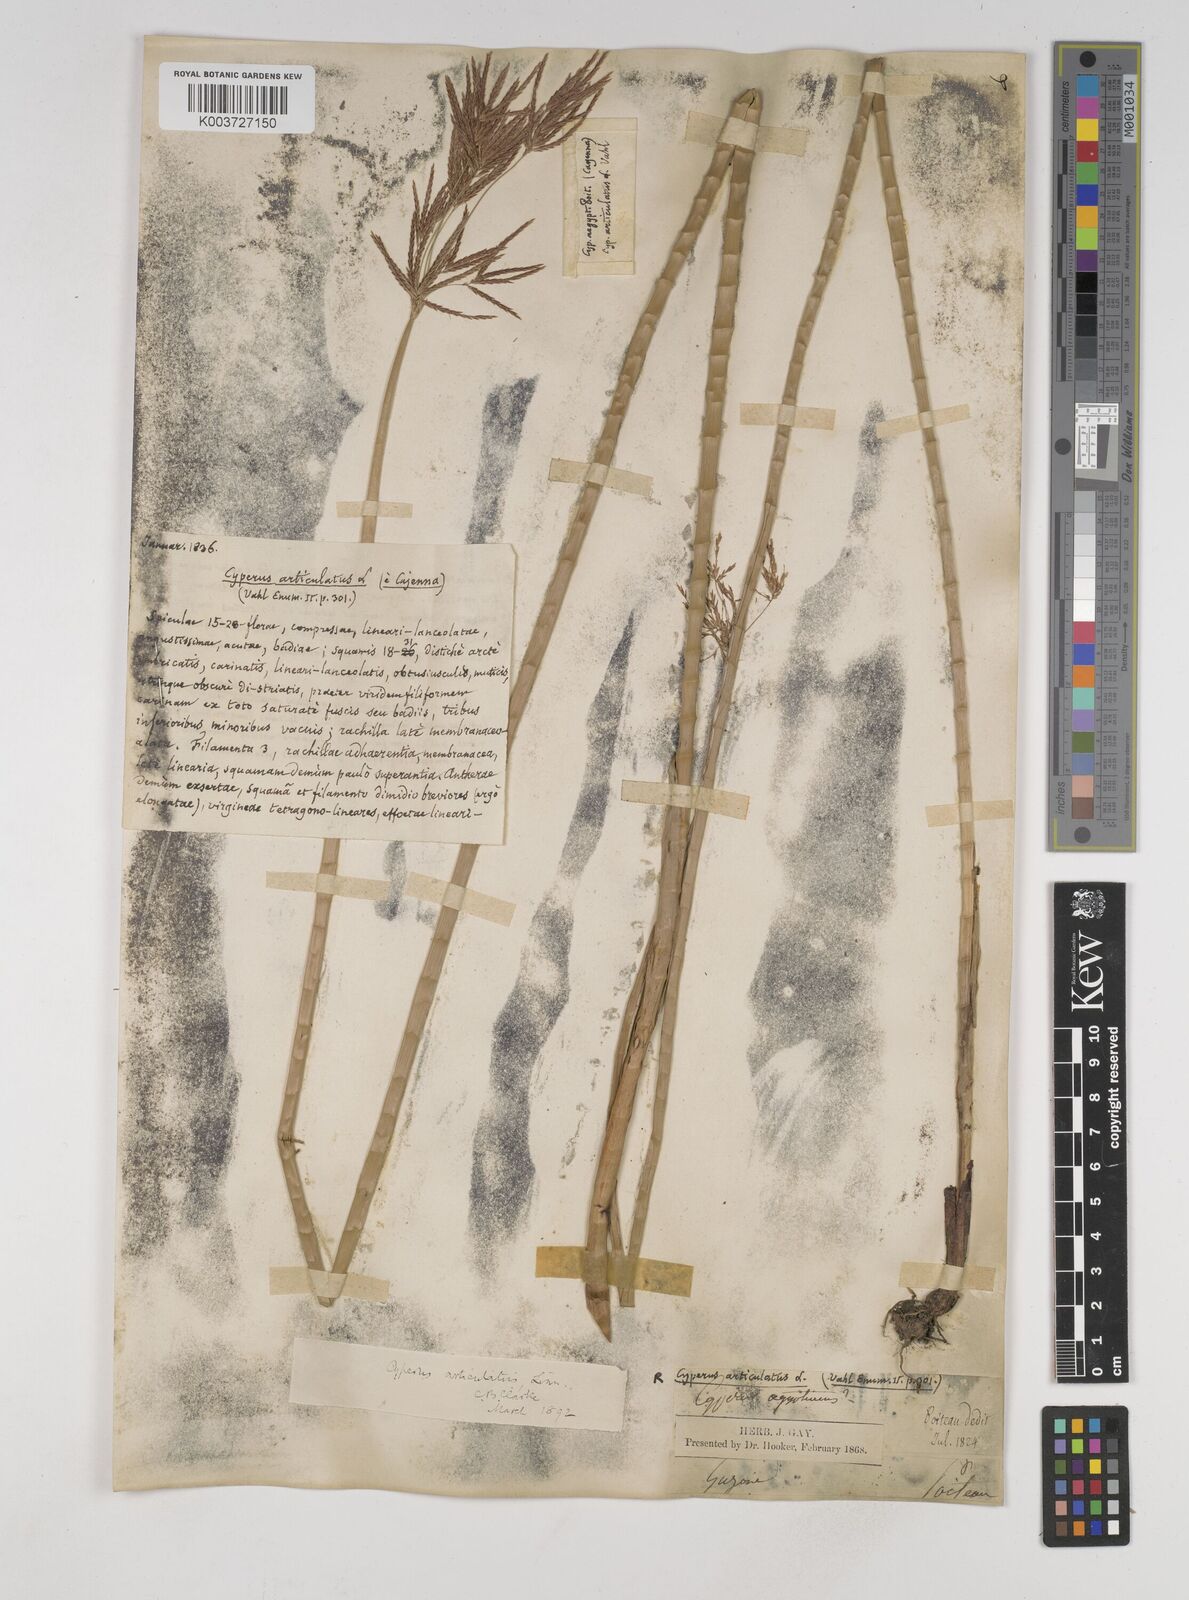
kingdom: Plantae
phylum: Tracheophyta
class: Liliopsida
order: Poales
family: Cyperaceae
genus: Cyperus
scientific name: Cyperus articulatus
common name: Jointed flatsedge
